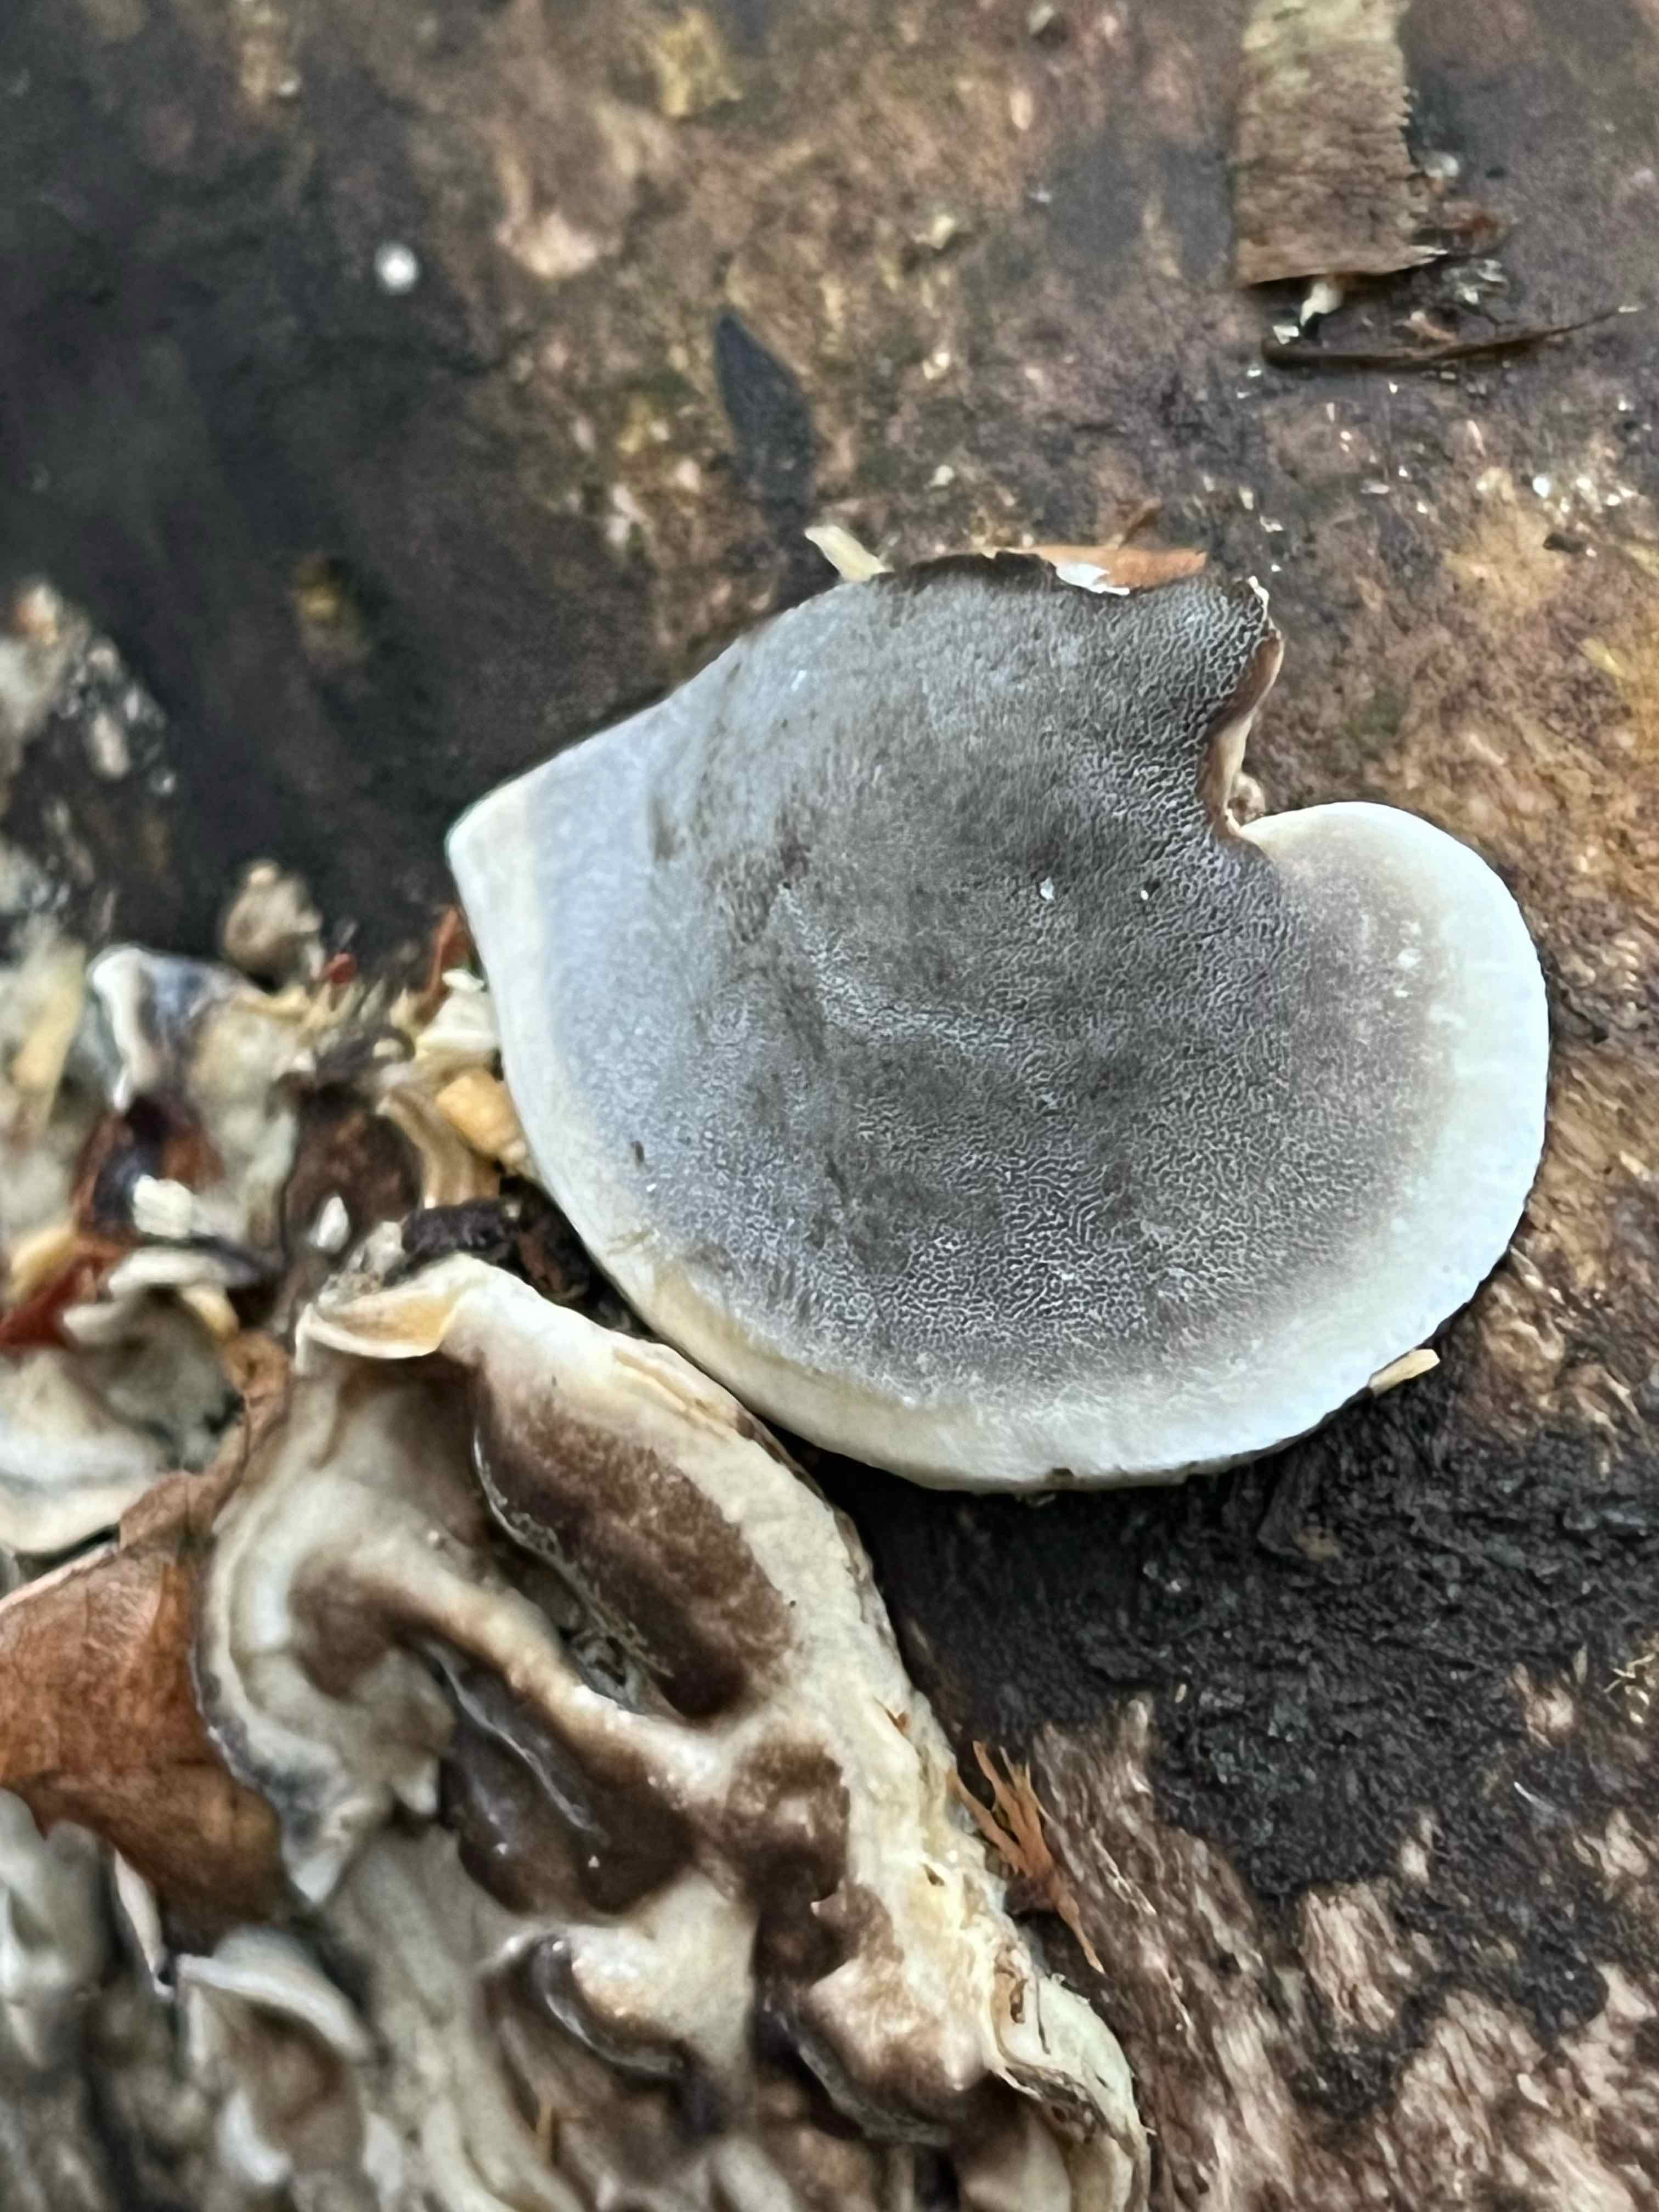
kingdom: Fungi
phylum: Basidiomycota
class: Agaricomycetes
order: Polyporales
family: Phanerochaetaceae
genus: Bjerkandera
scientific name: Bjerkandera adusta
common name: sveden sodporesvamp
